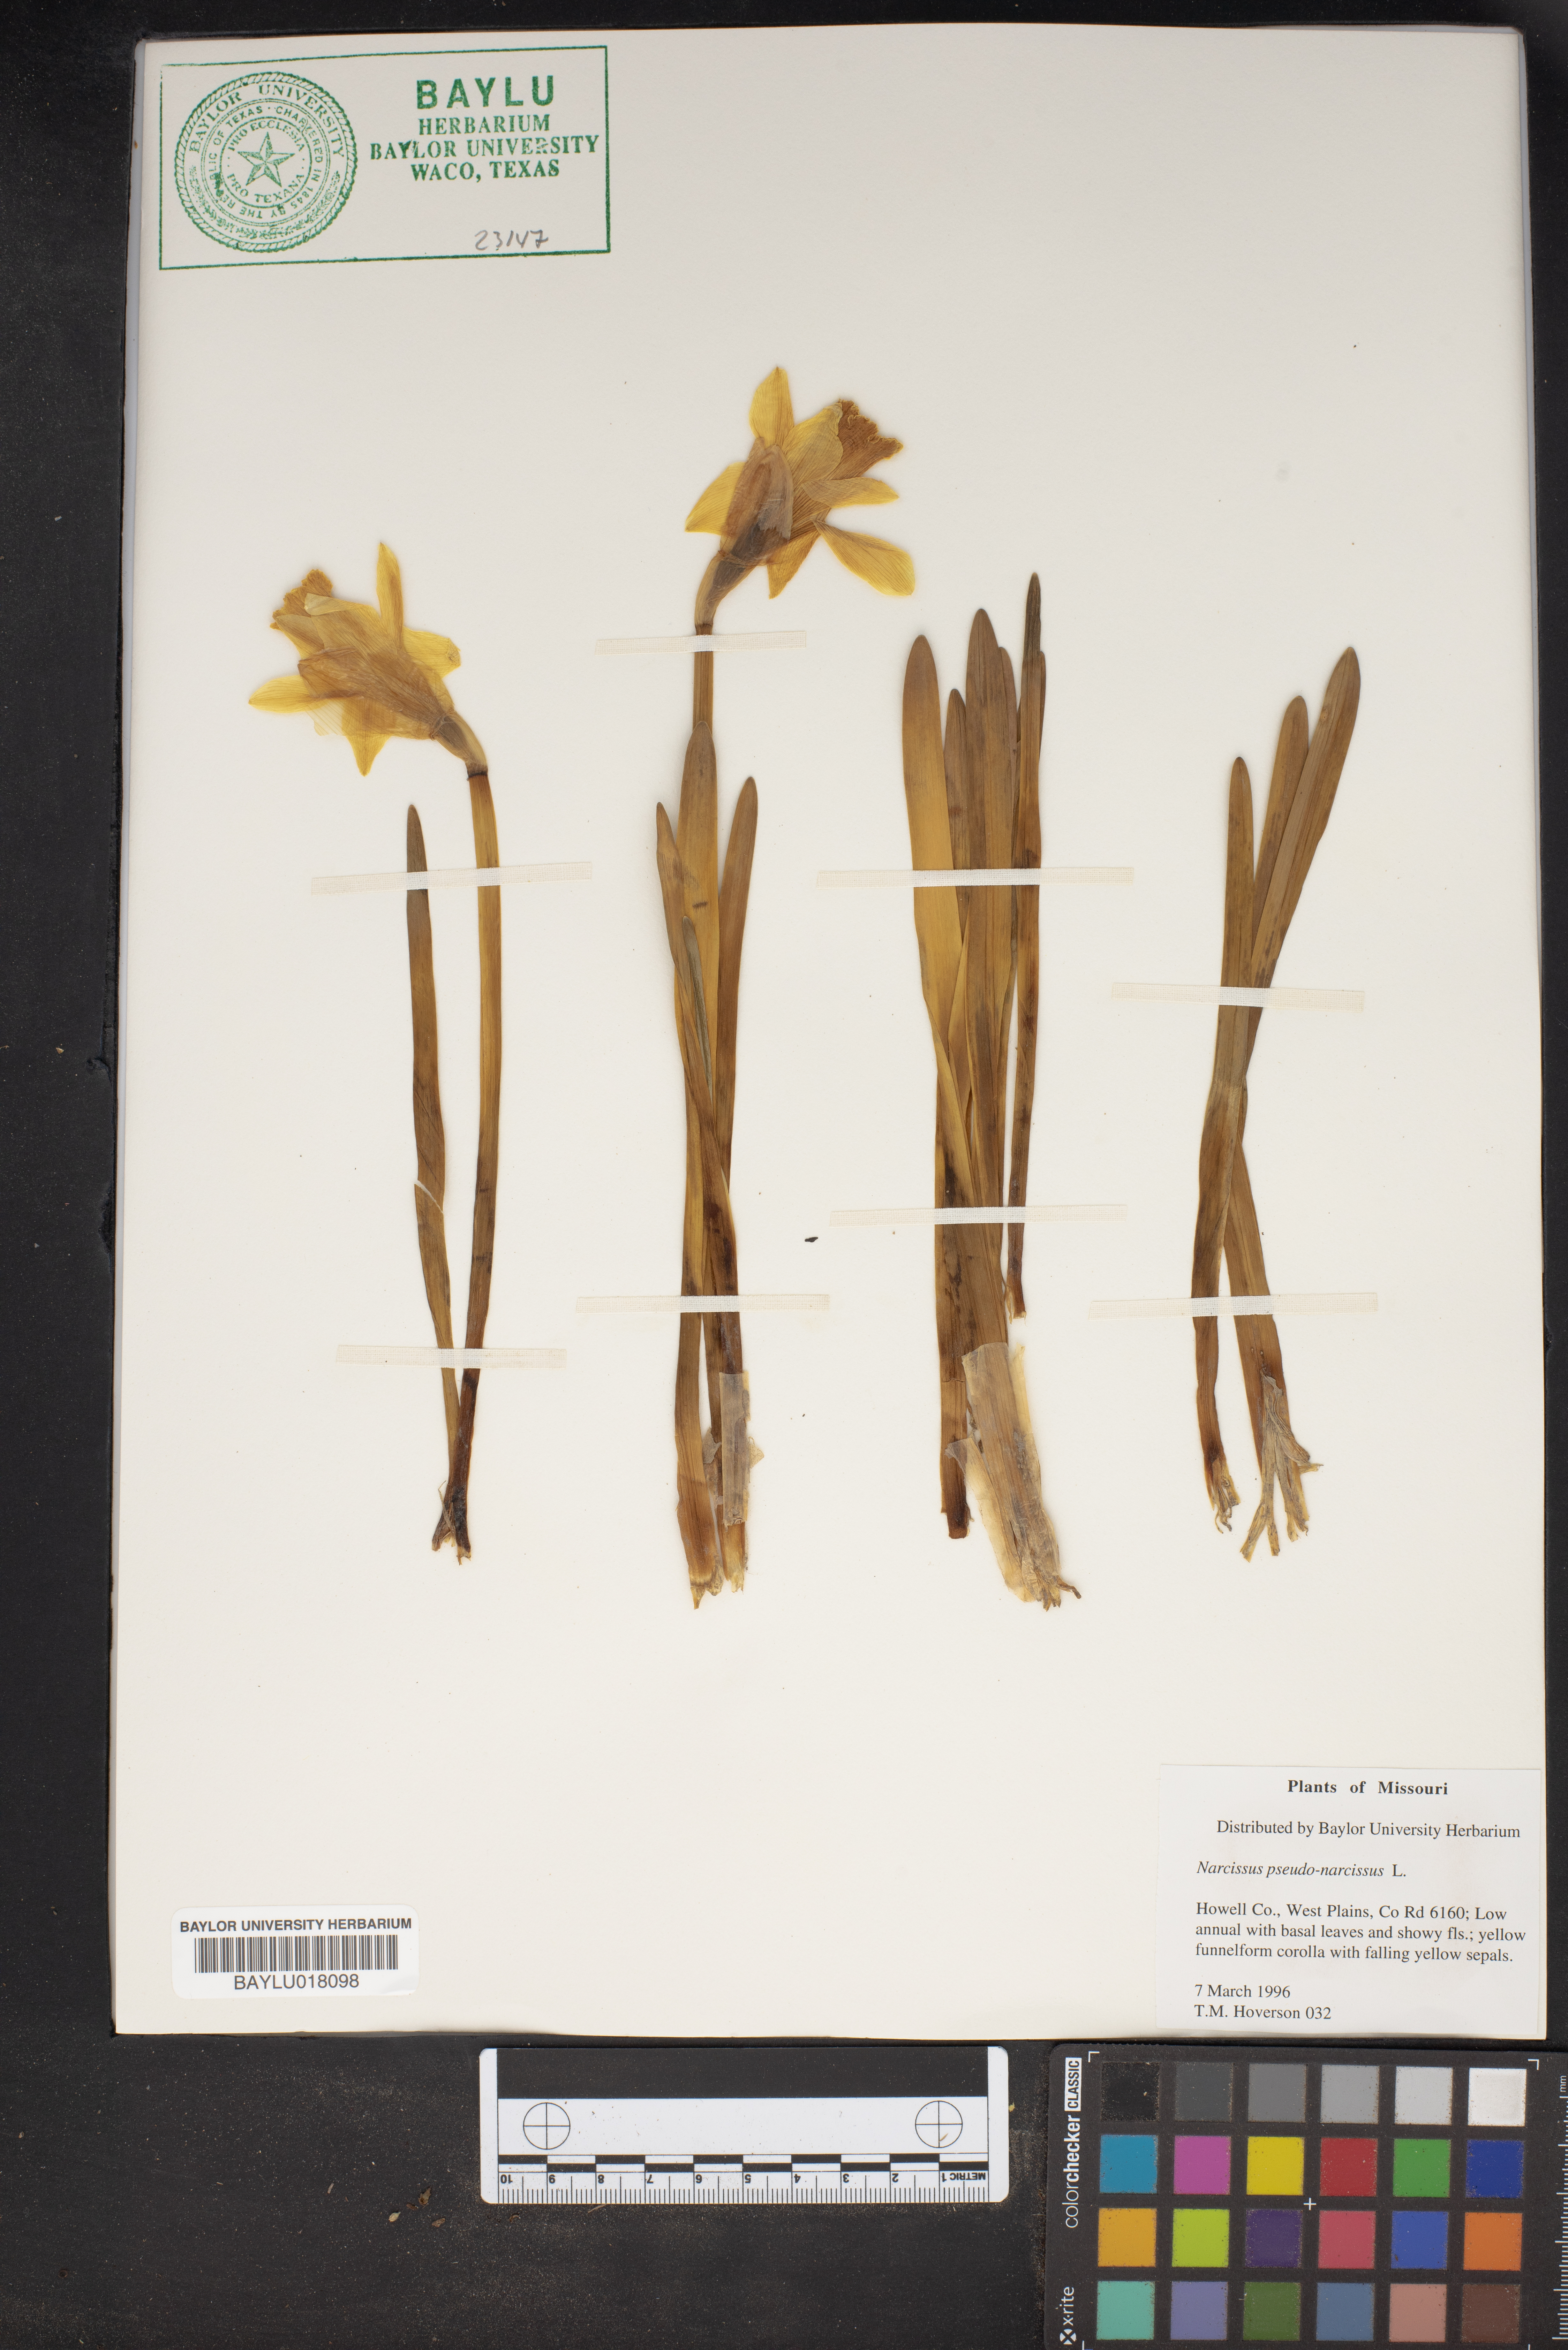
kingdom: Plantae
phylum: Tracheophyta
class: Liliopsida
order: Asparagales
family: Amaryllidaceae
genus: Narcissus
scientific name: Narcissus pseudonarcissus
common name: Daffodil
